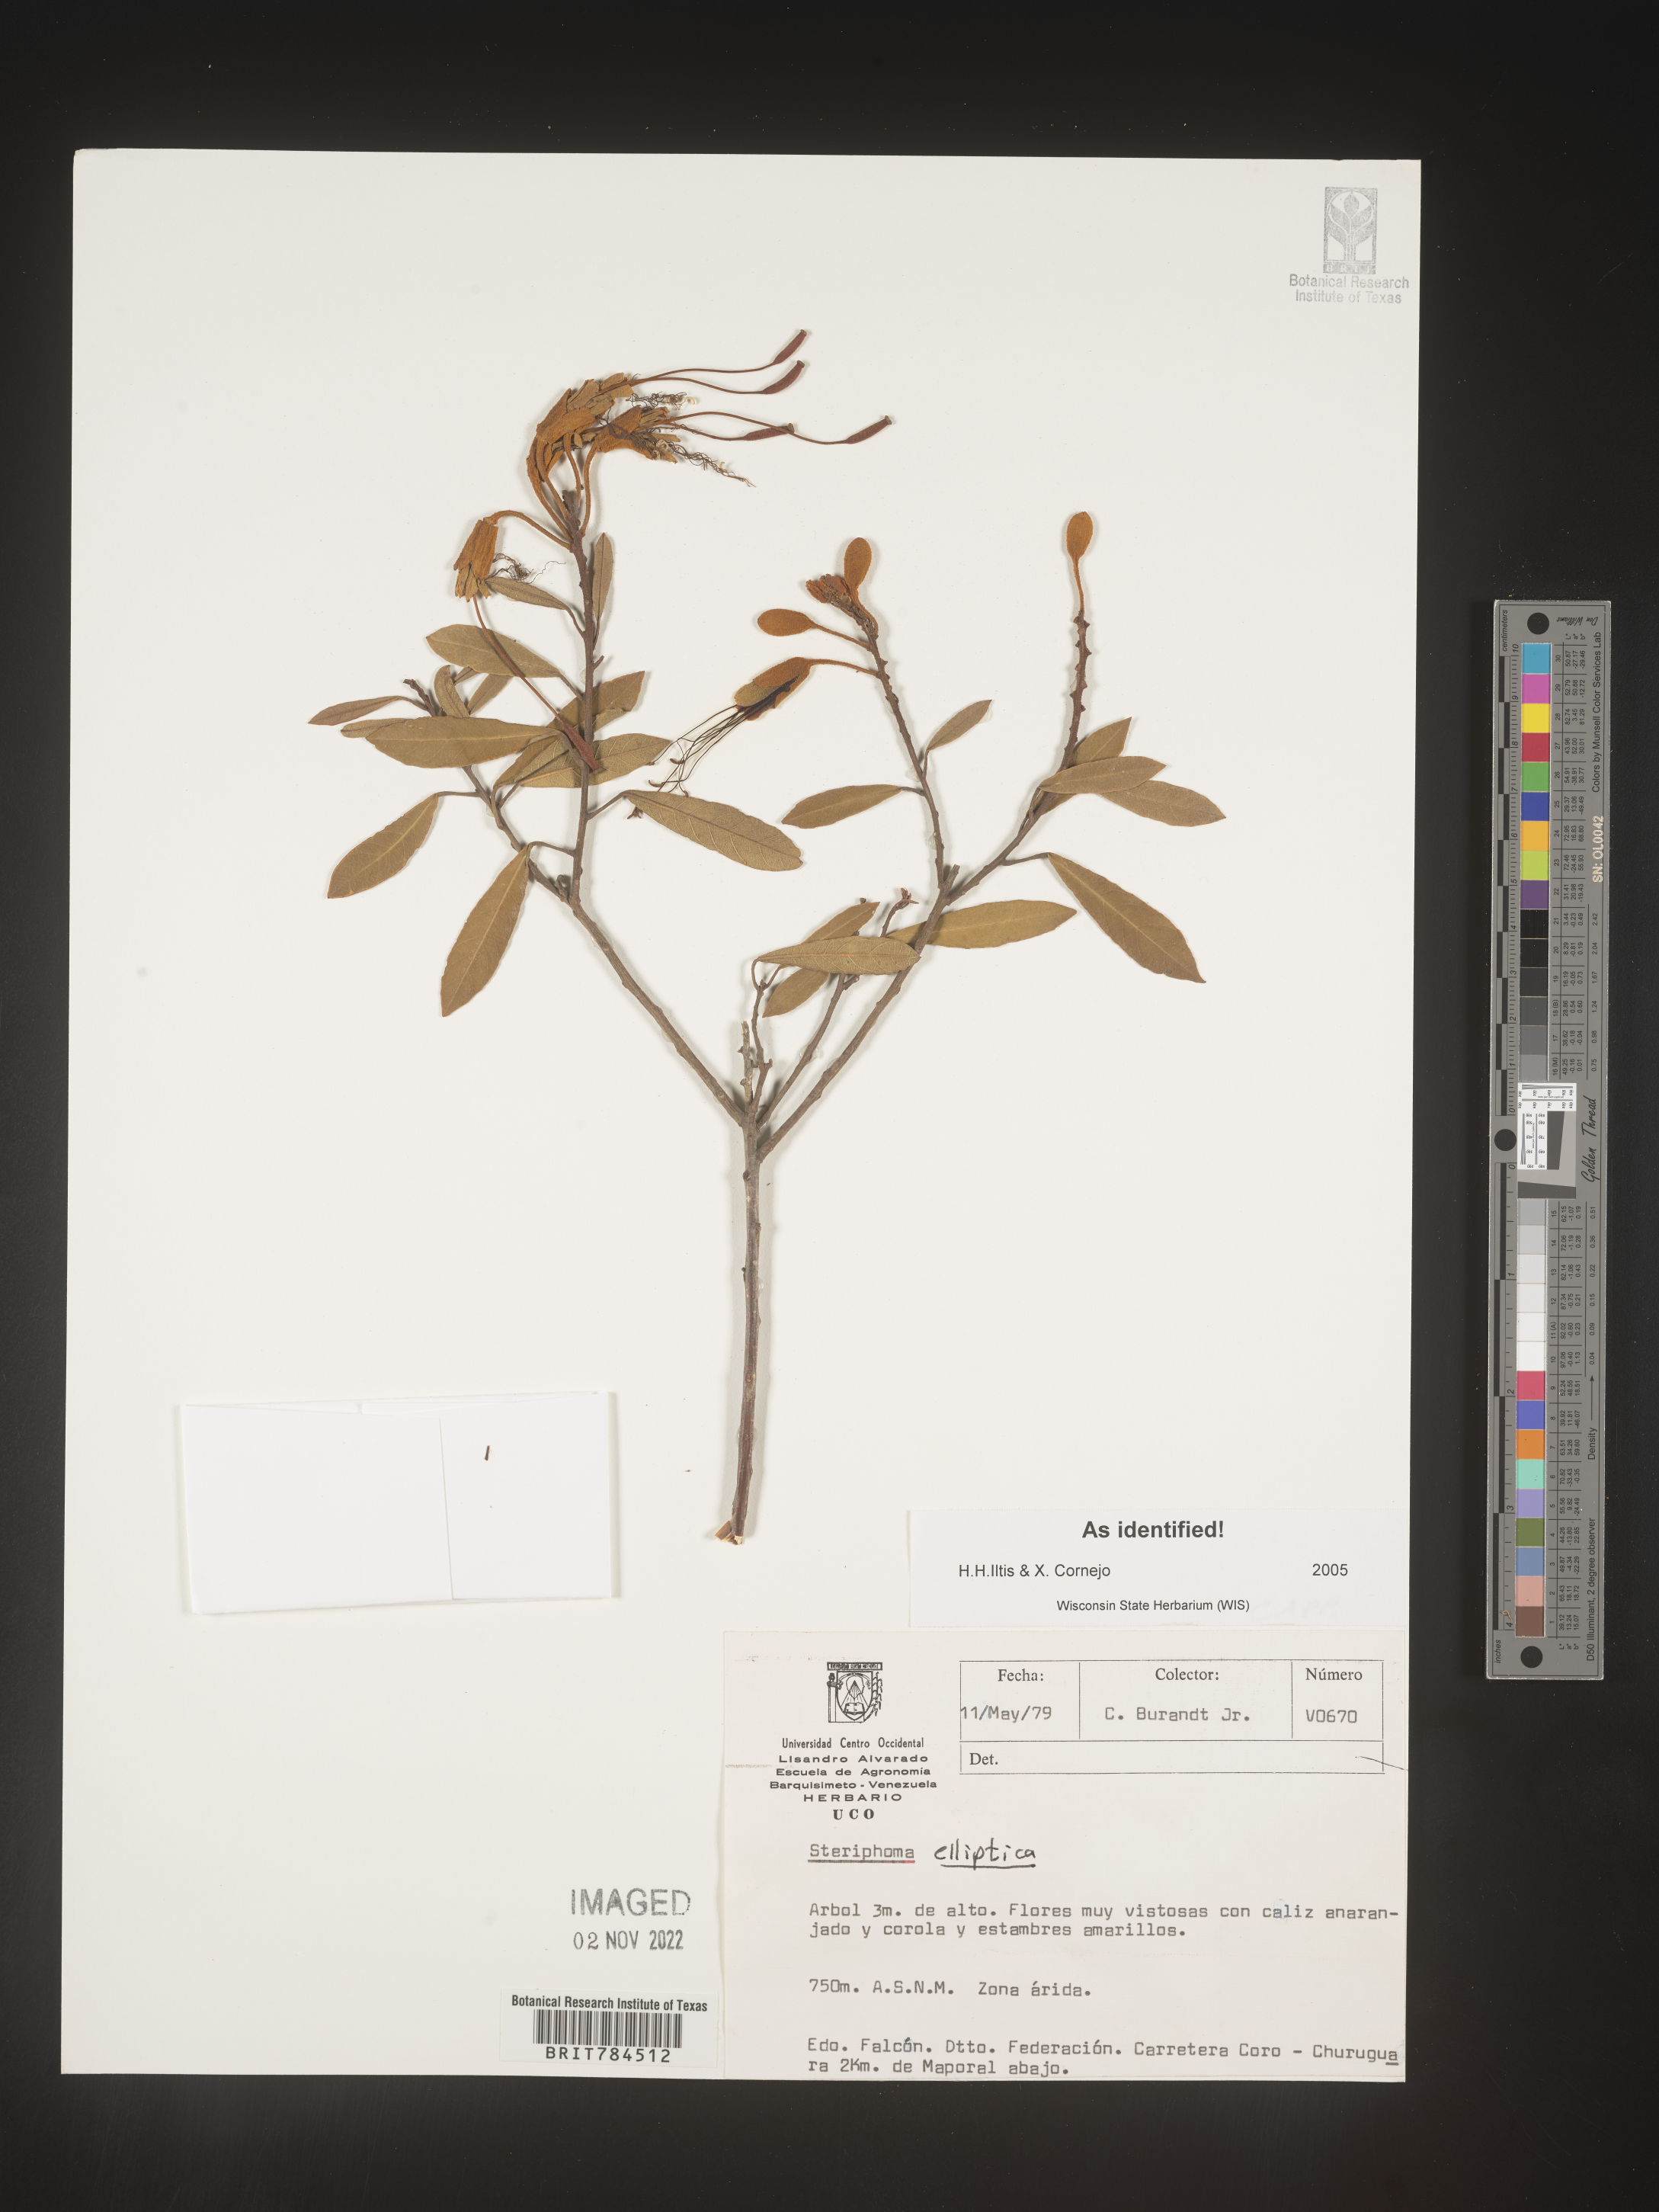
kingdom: Plantae
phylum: Tracheophyta
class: Magnoliopsida
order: Brassicales
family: Capparaceae
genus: Steriphoma
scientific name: Steriphoma
